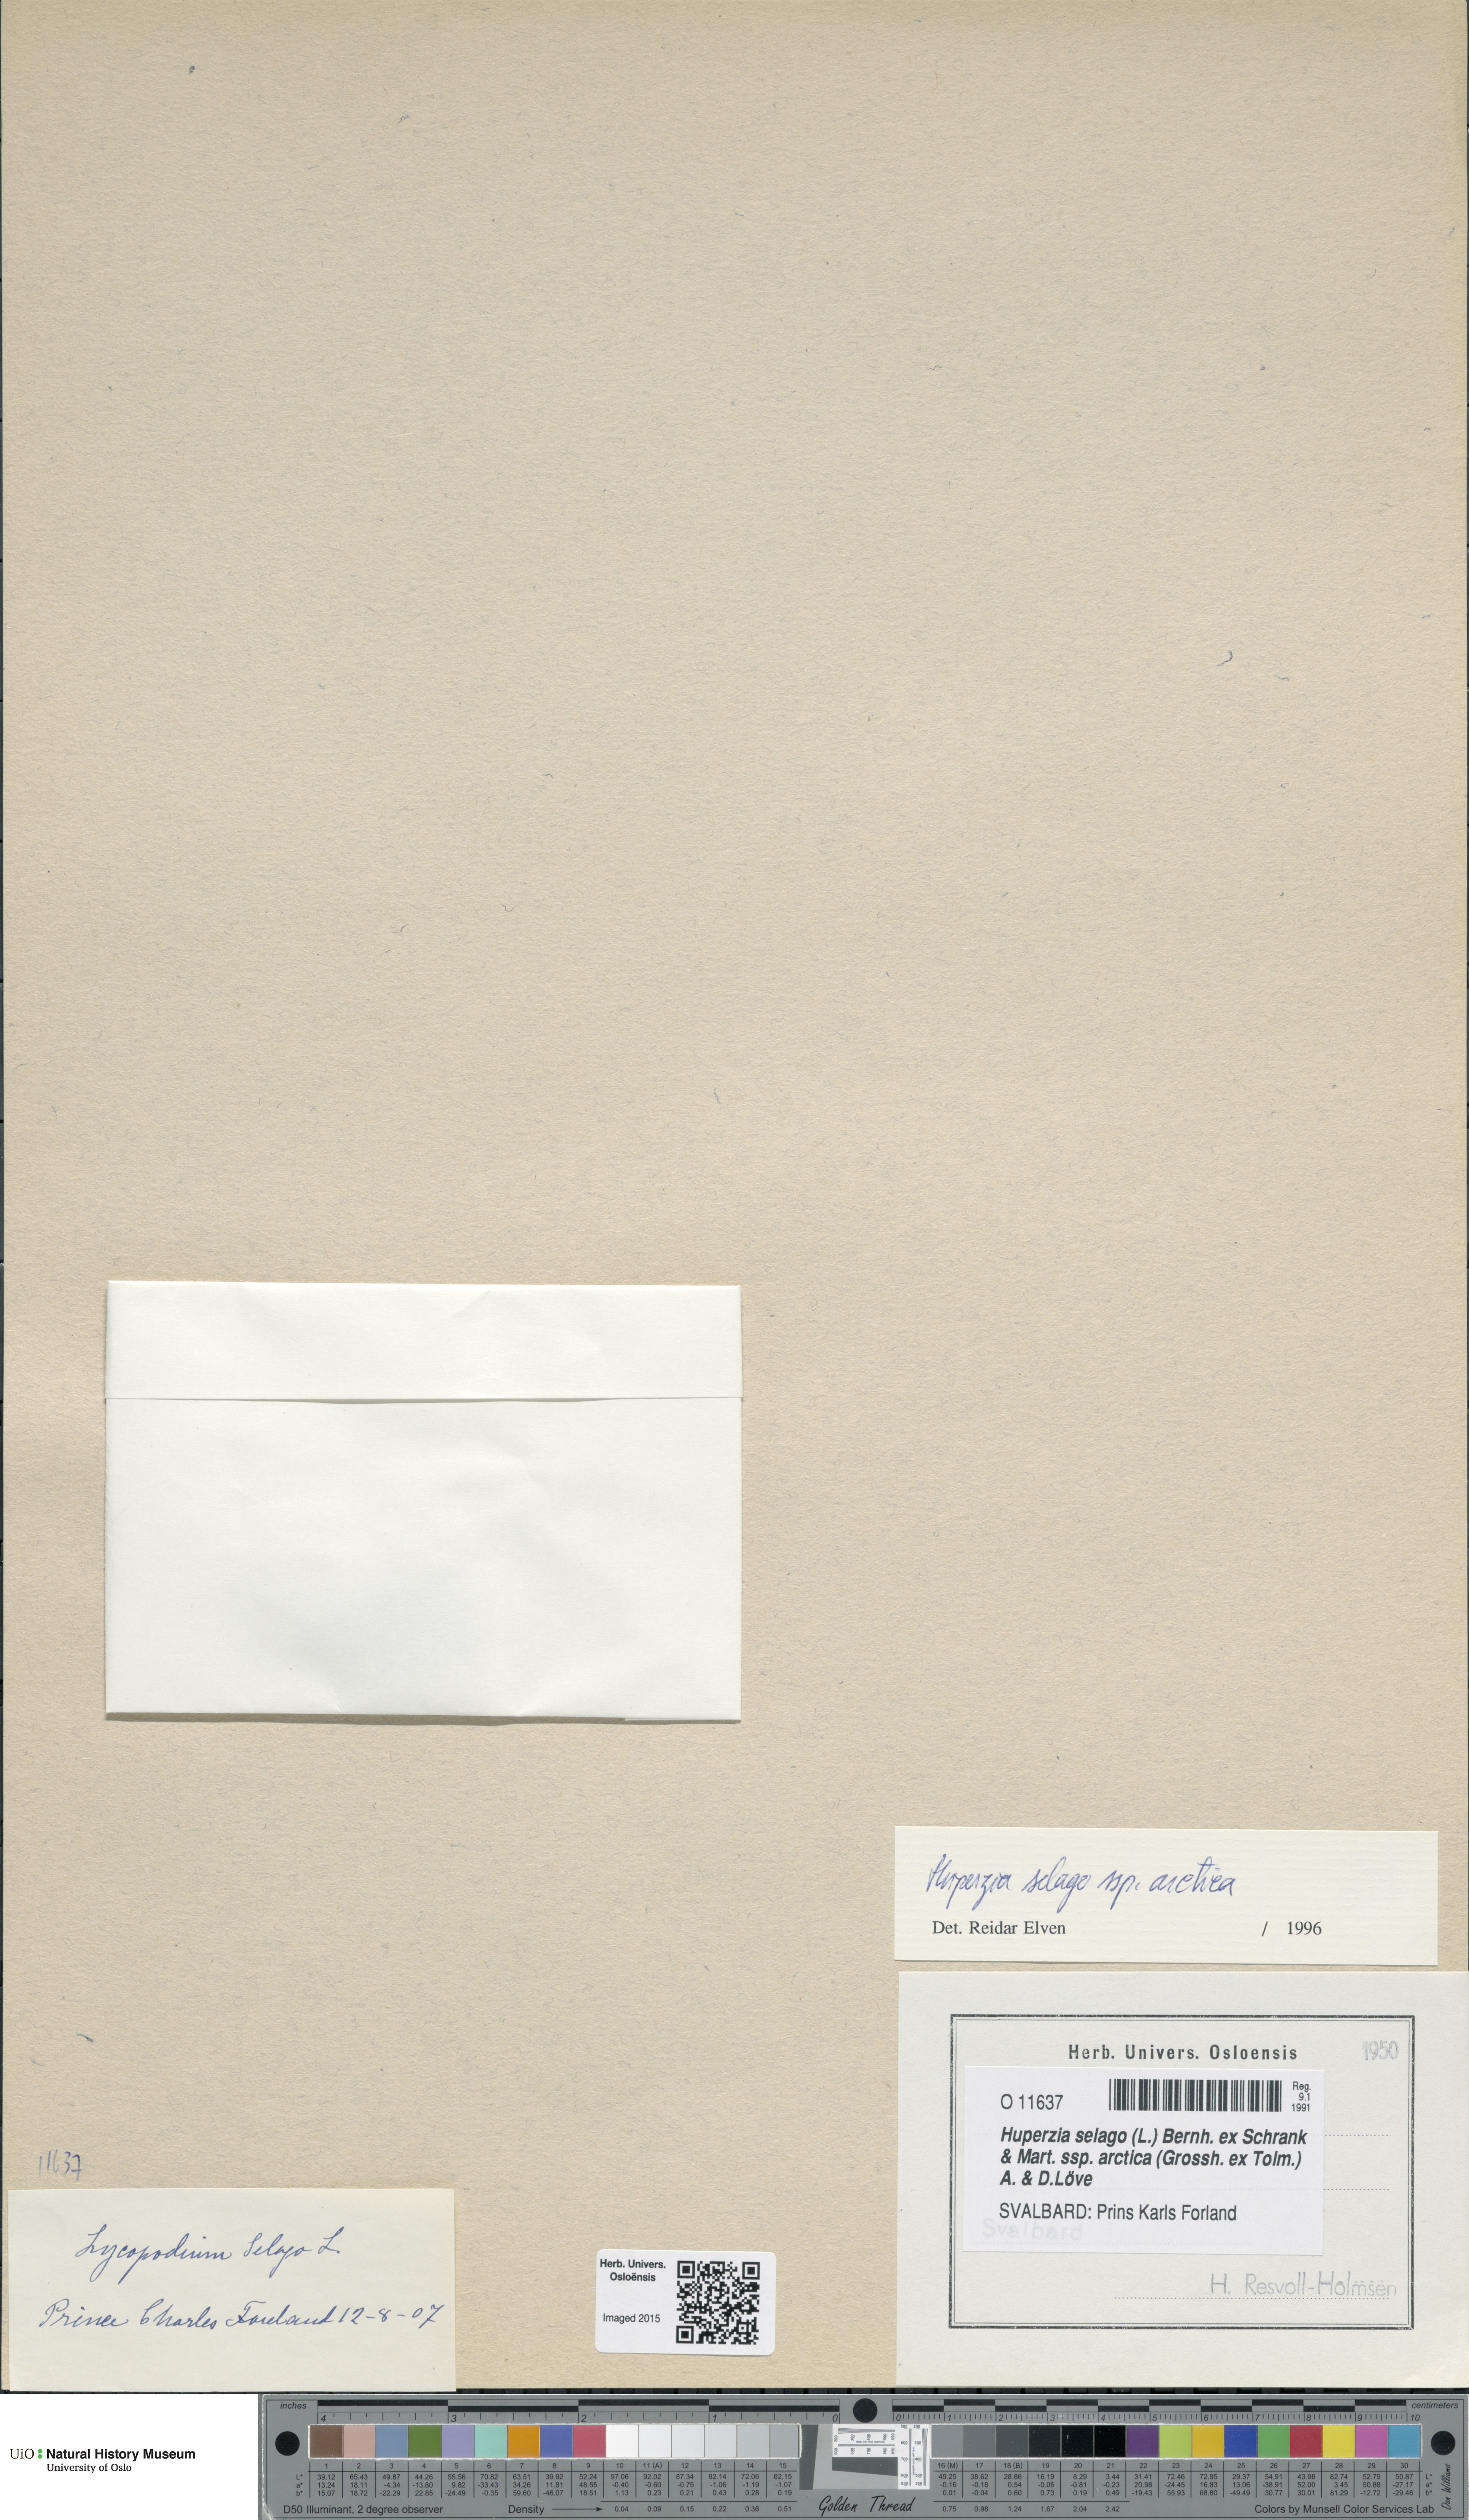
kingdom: Plantae
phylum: Tracheophyta
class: Lycopodiopsida
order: Lycopodiales
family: Lycopodiaceae
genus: Huperzia
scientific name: Huperzia selago
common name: Northern firmoss
